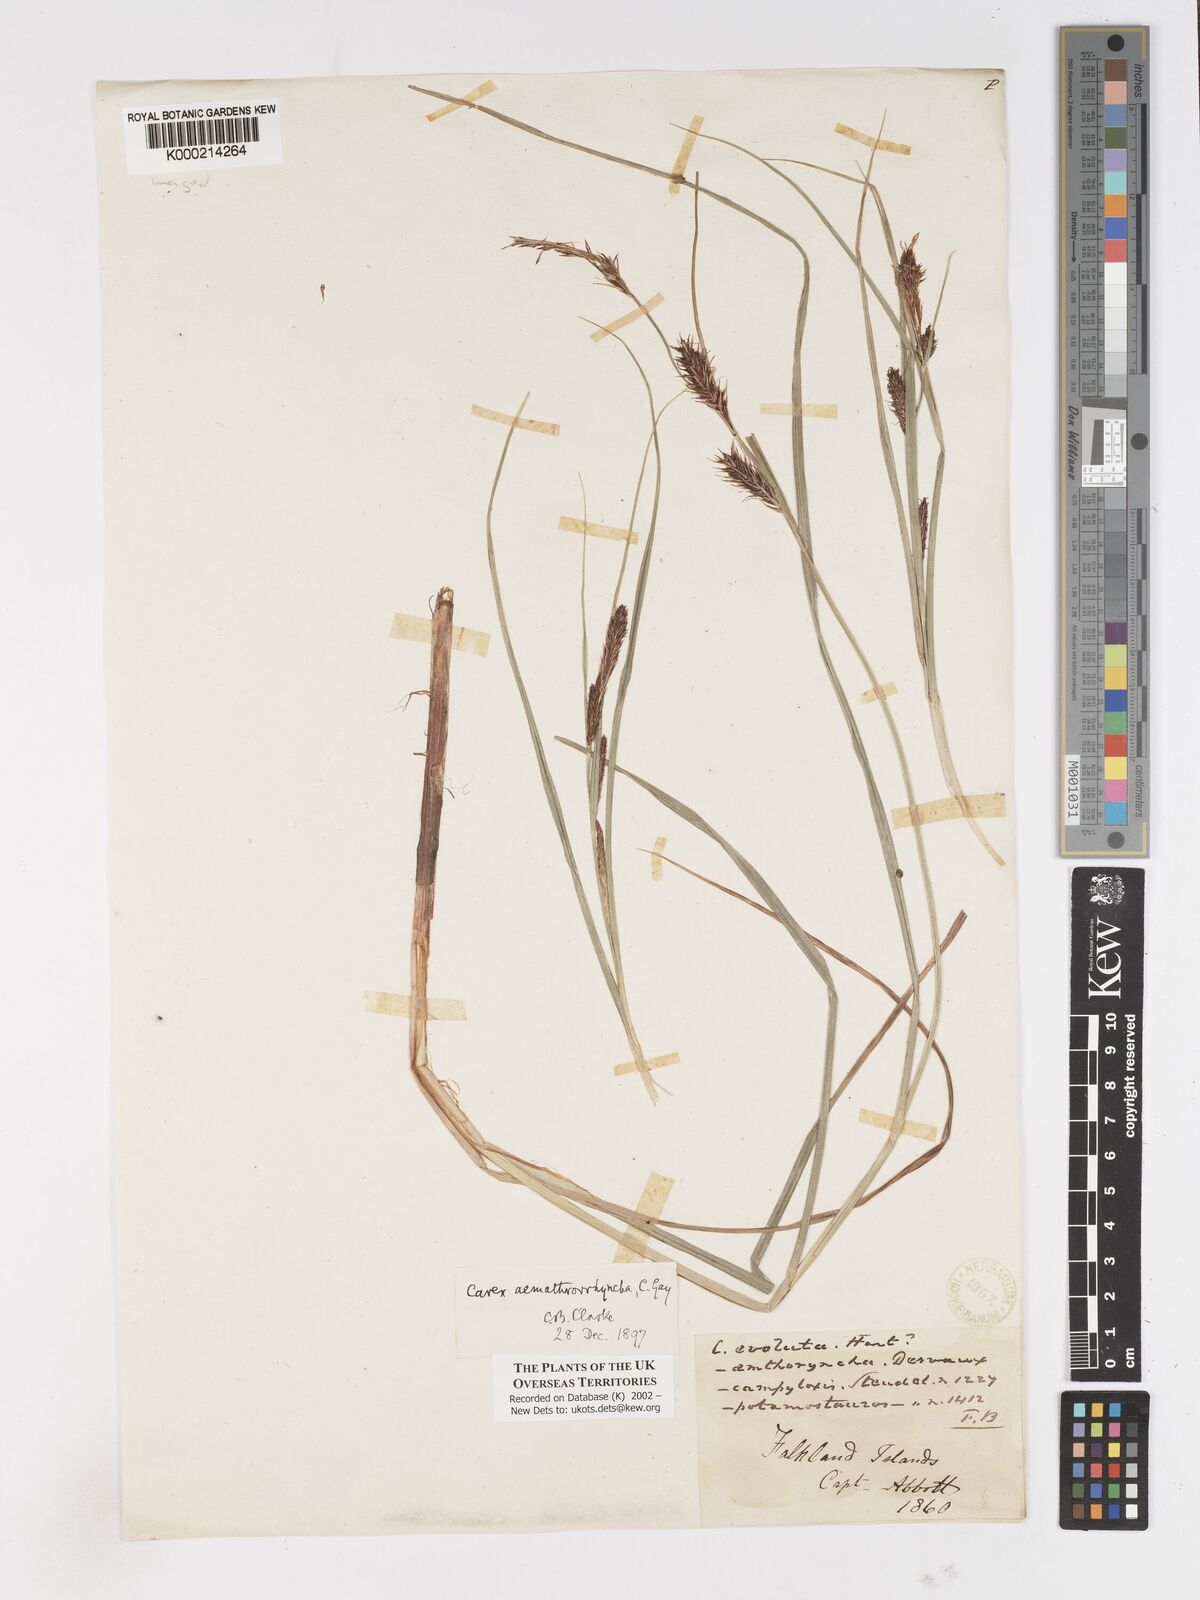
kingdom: Plantae
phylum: Tracheophyta
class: Liliopsida
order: Poales
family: Cyperaceae
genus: Carex
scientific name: Carex aematorhyncha
